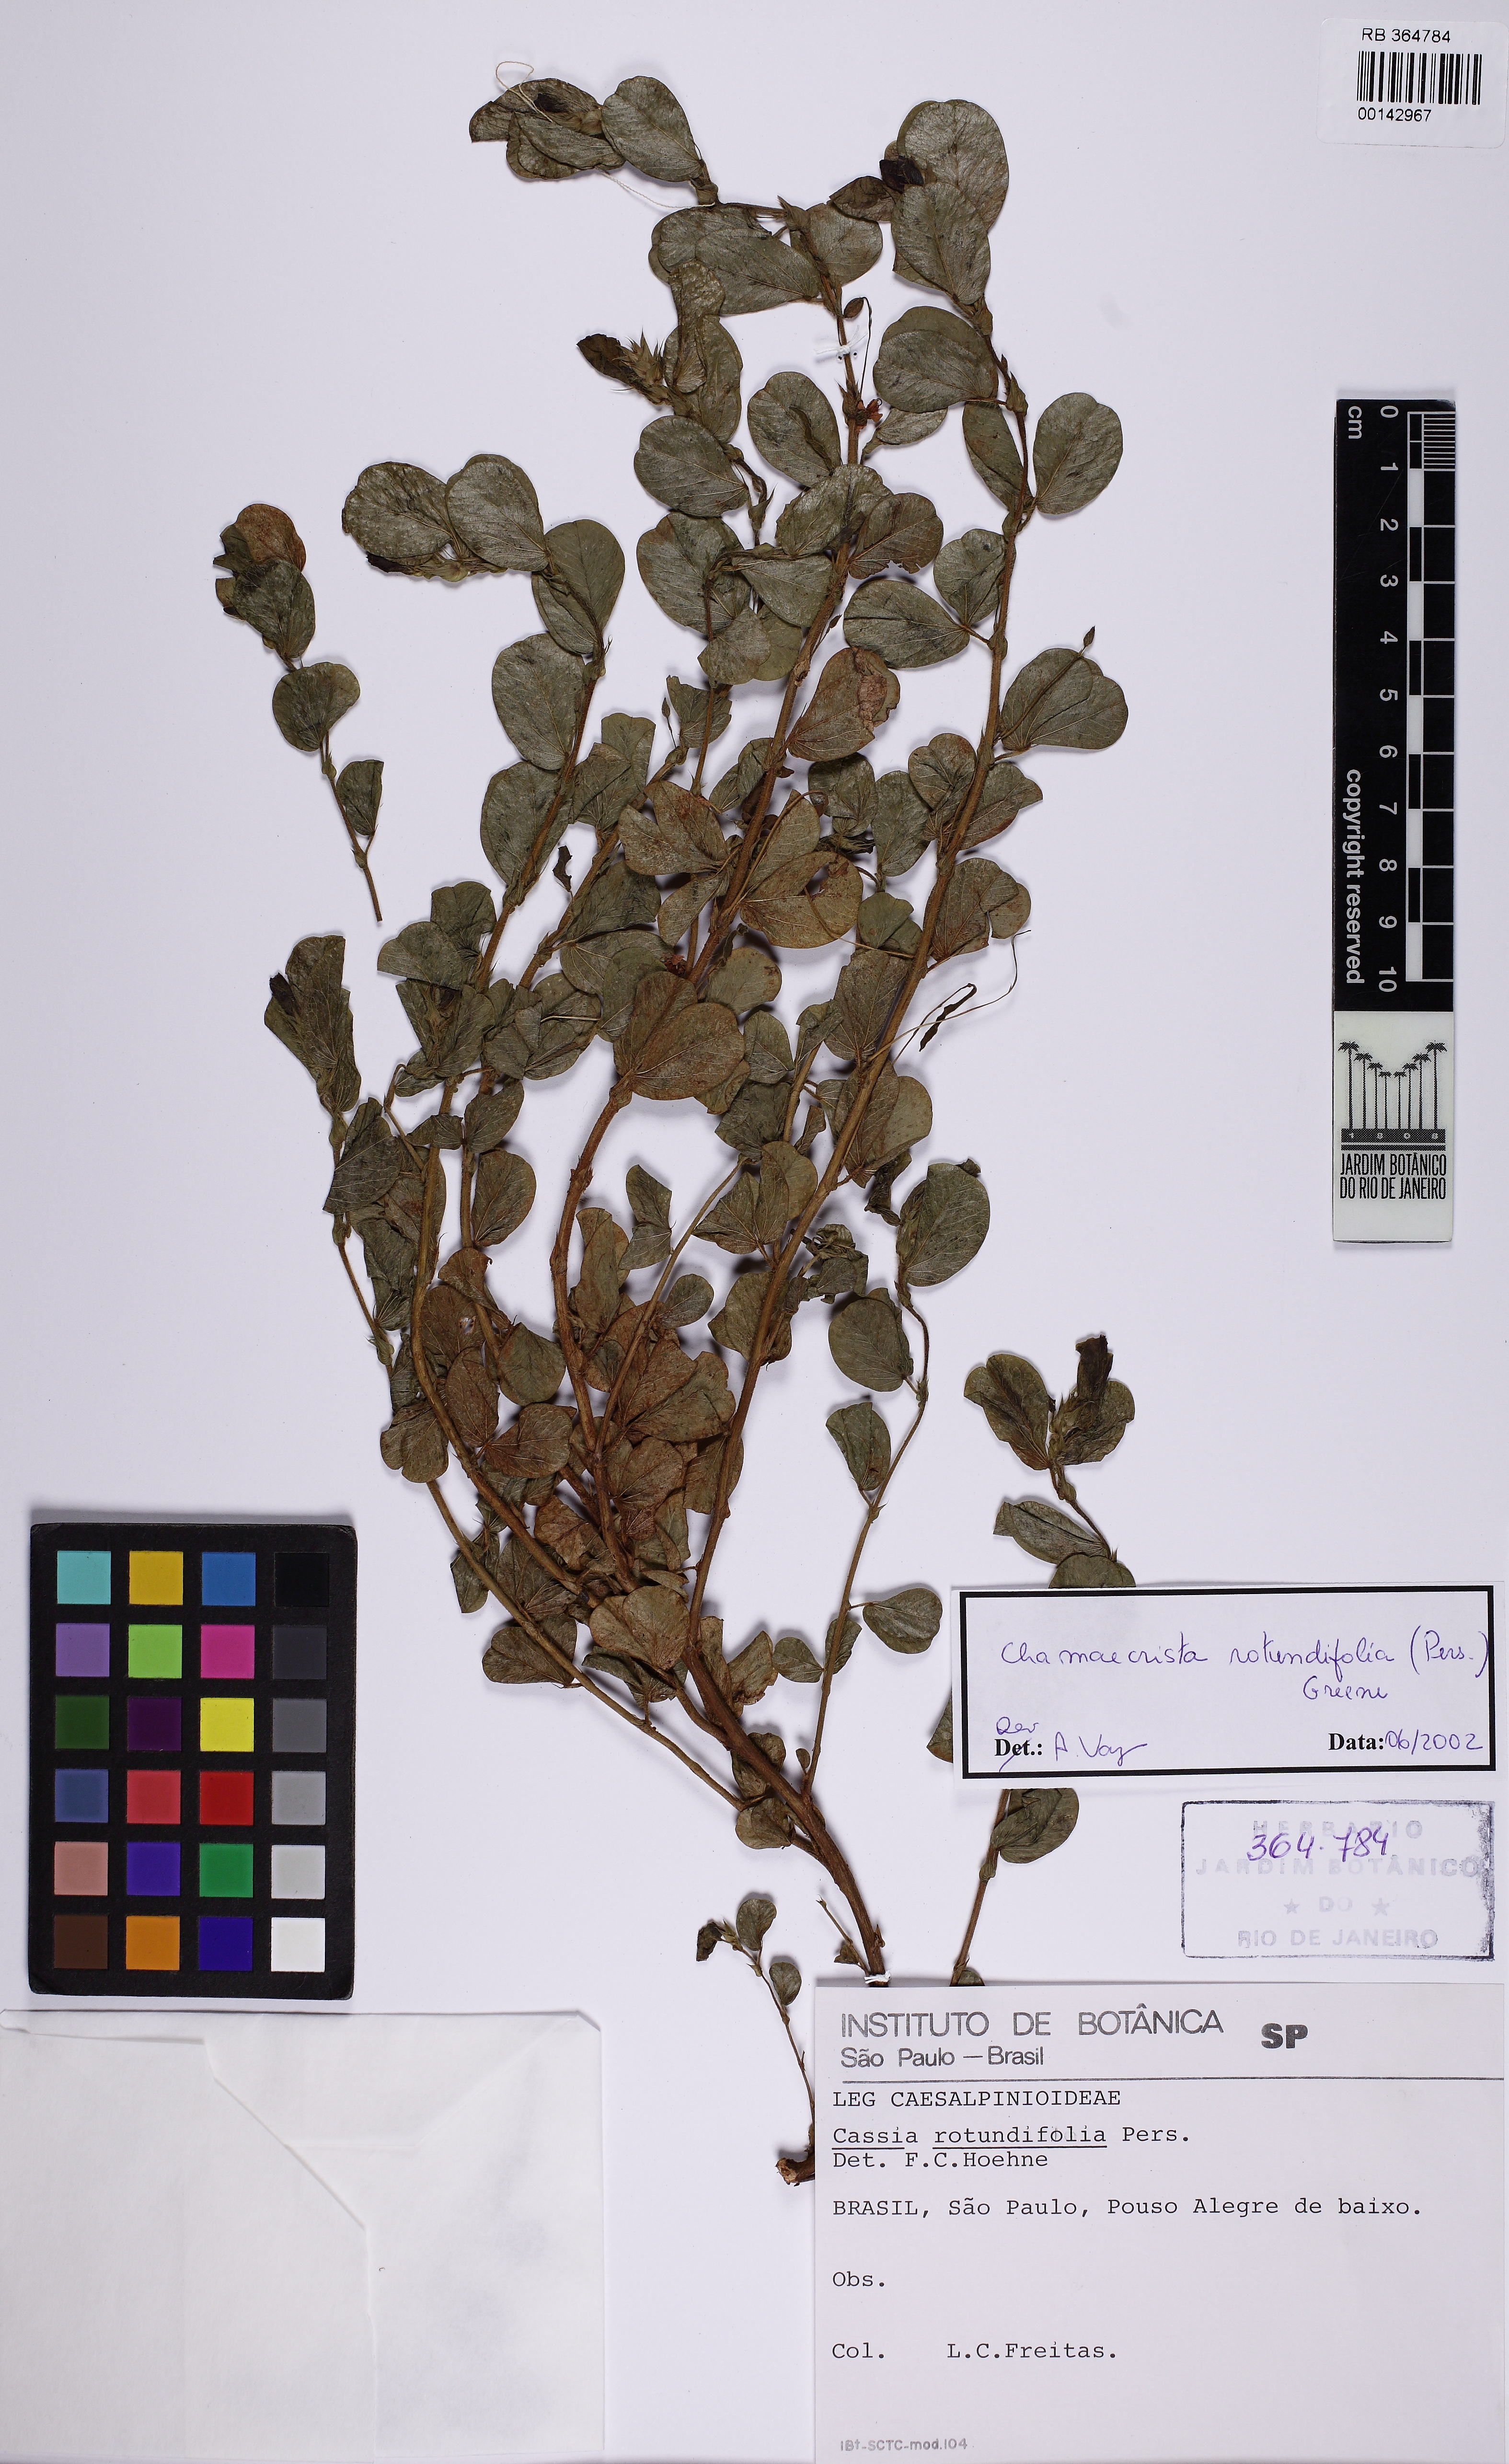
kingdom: Plantae
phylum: Tracheophyta
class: Magnoliopsida
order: Fabales
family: Fabaceae
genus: Chamaecrista
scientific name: Chamaecrista rotundifolia
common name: Round-leaf cassia
